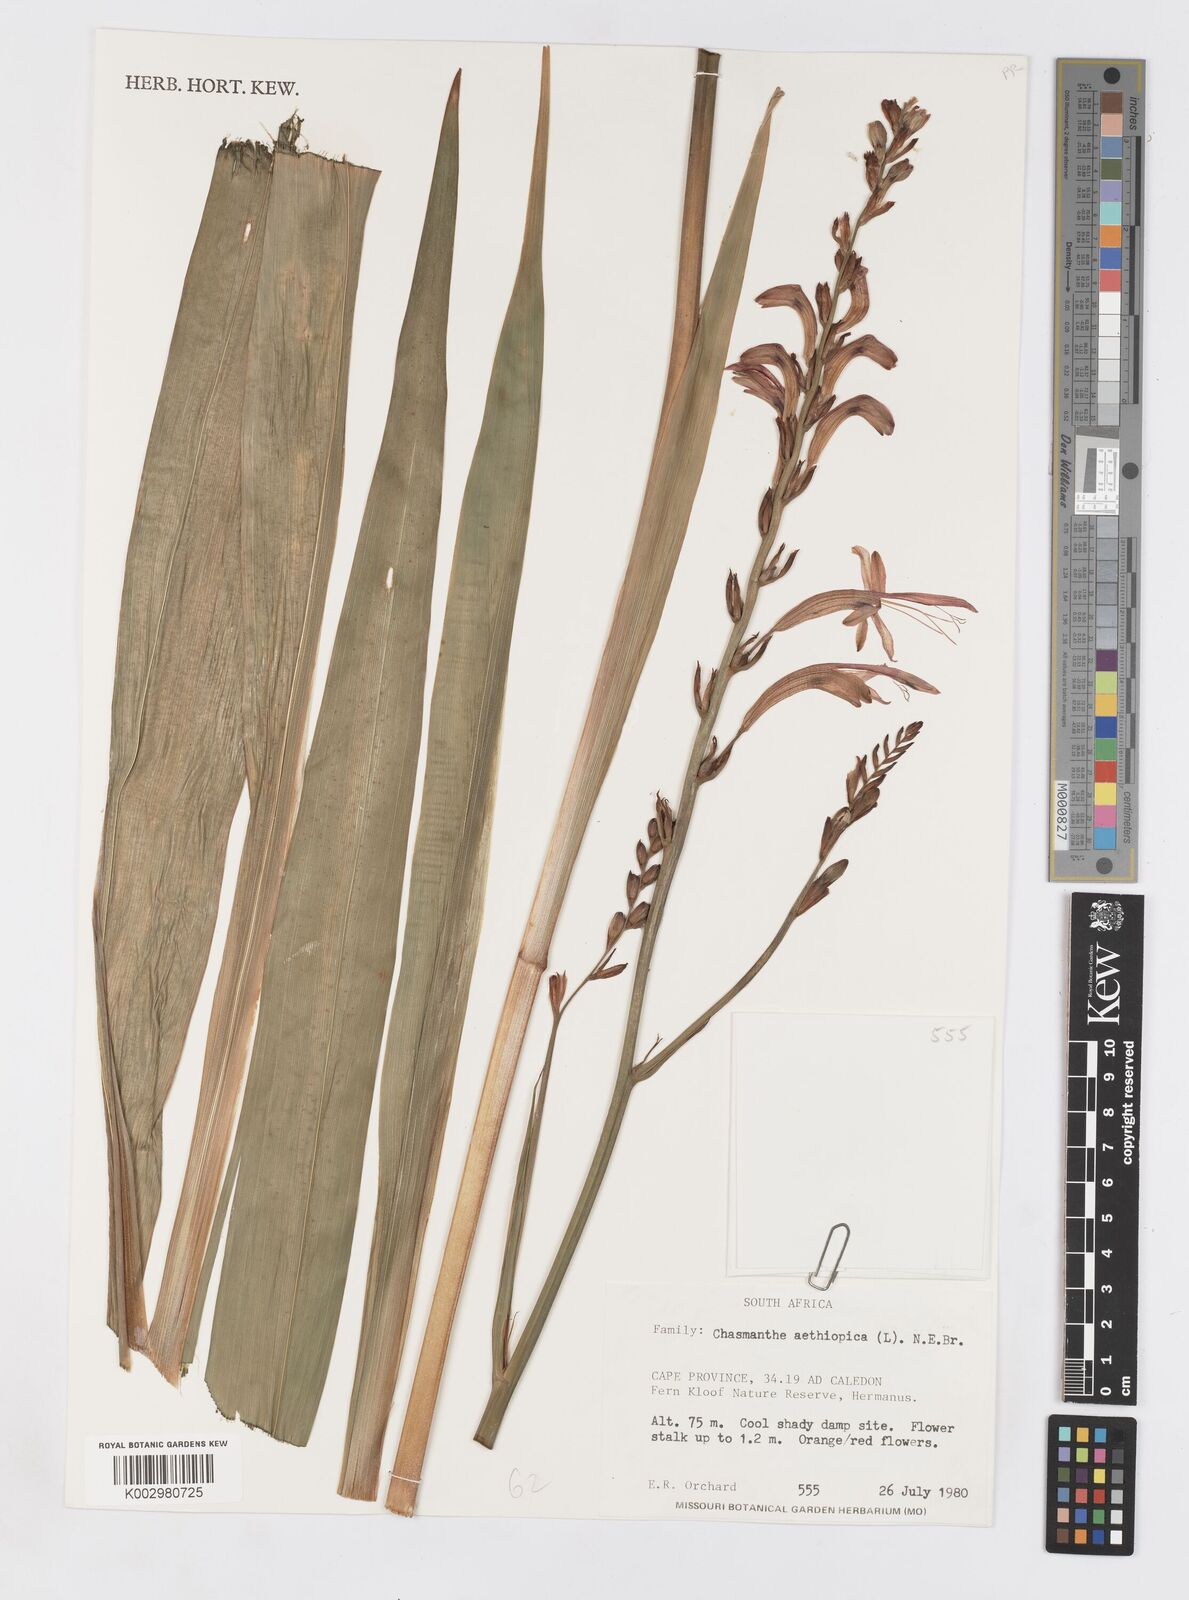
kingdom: Plantae
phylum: Tracheophyta
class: Liliopsida
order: Asparagales
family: Iridaceae
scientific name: Iridaceae
